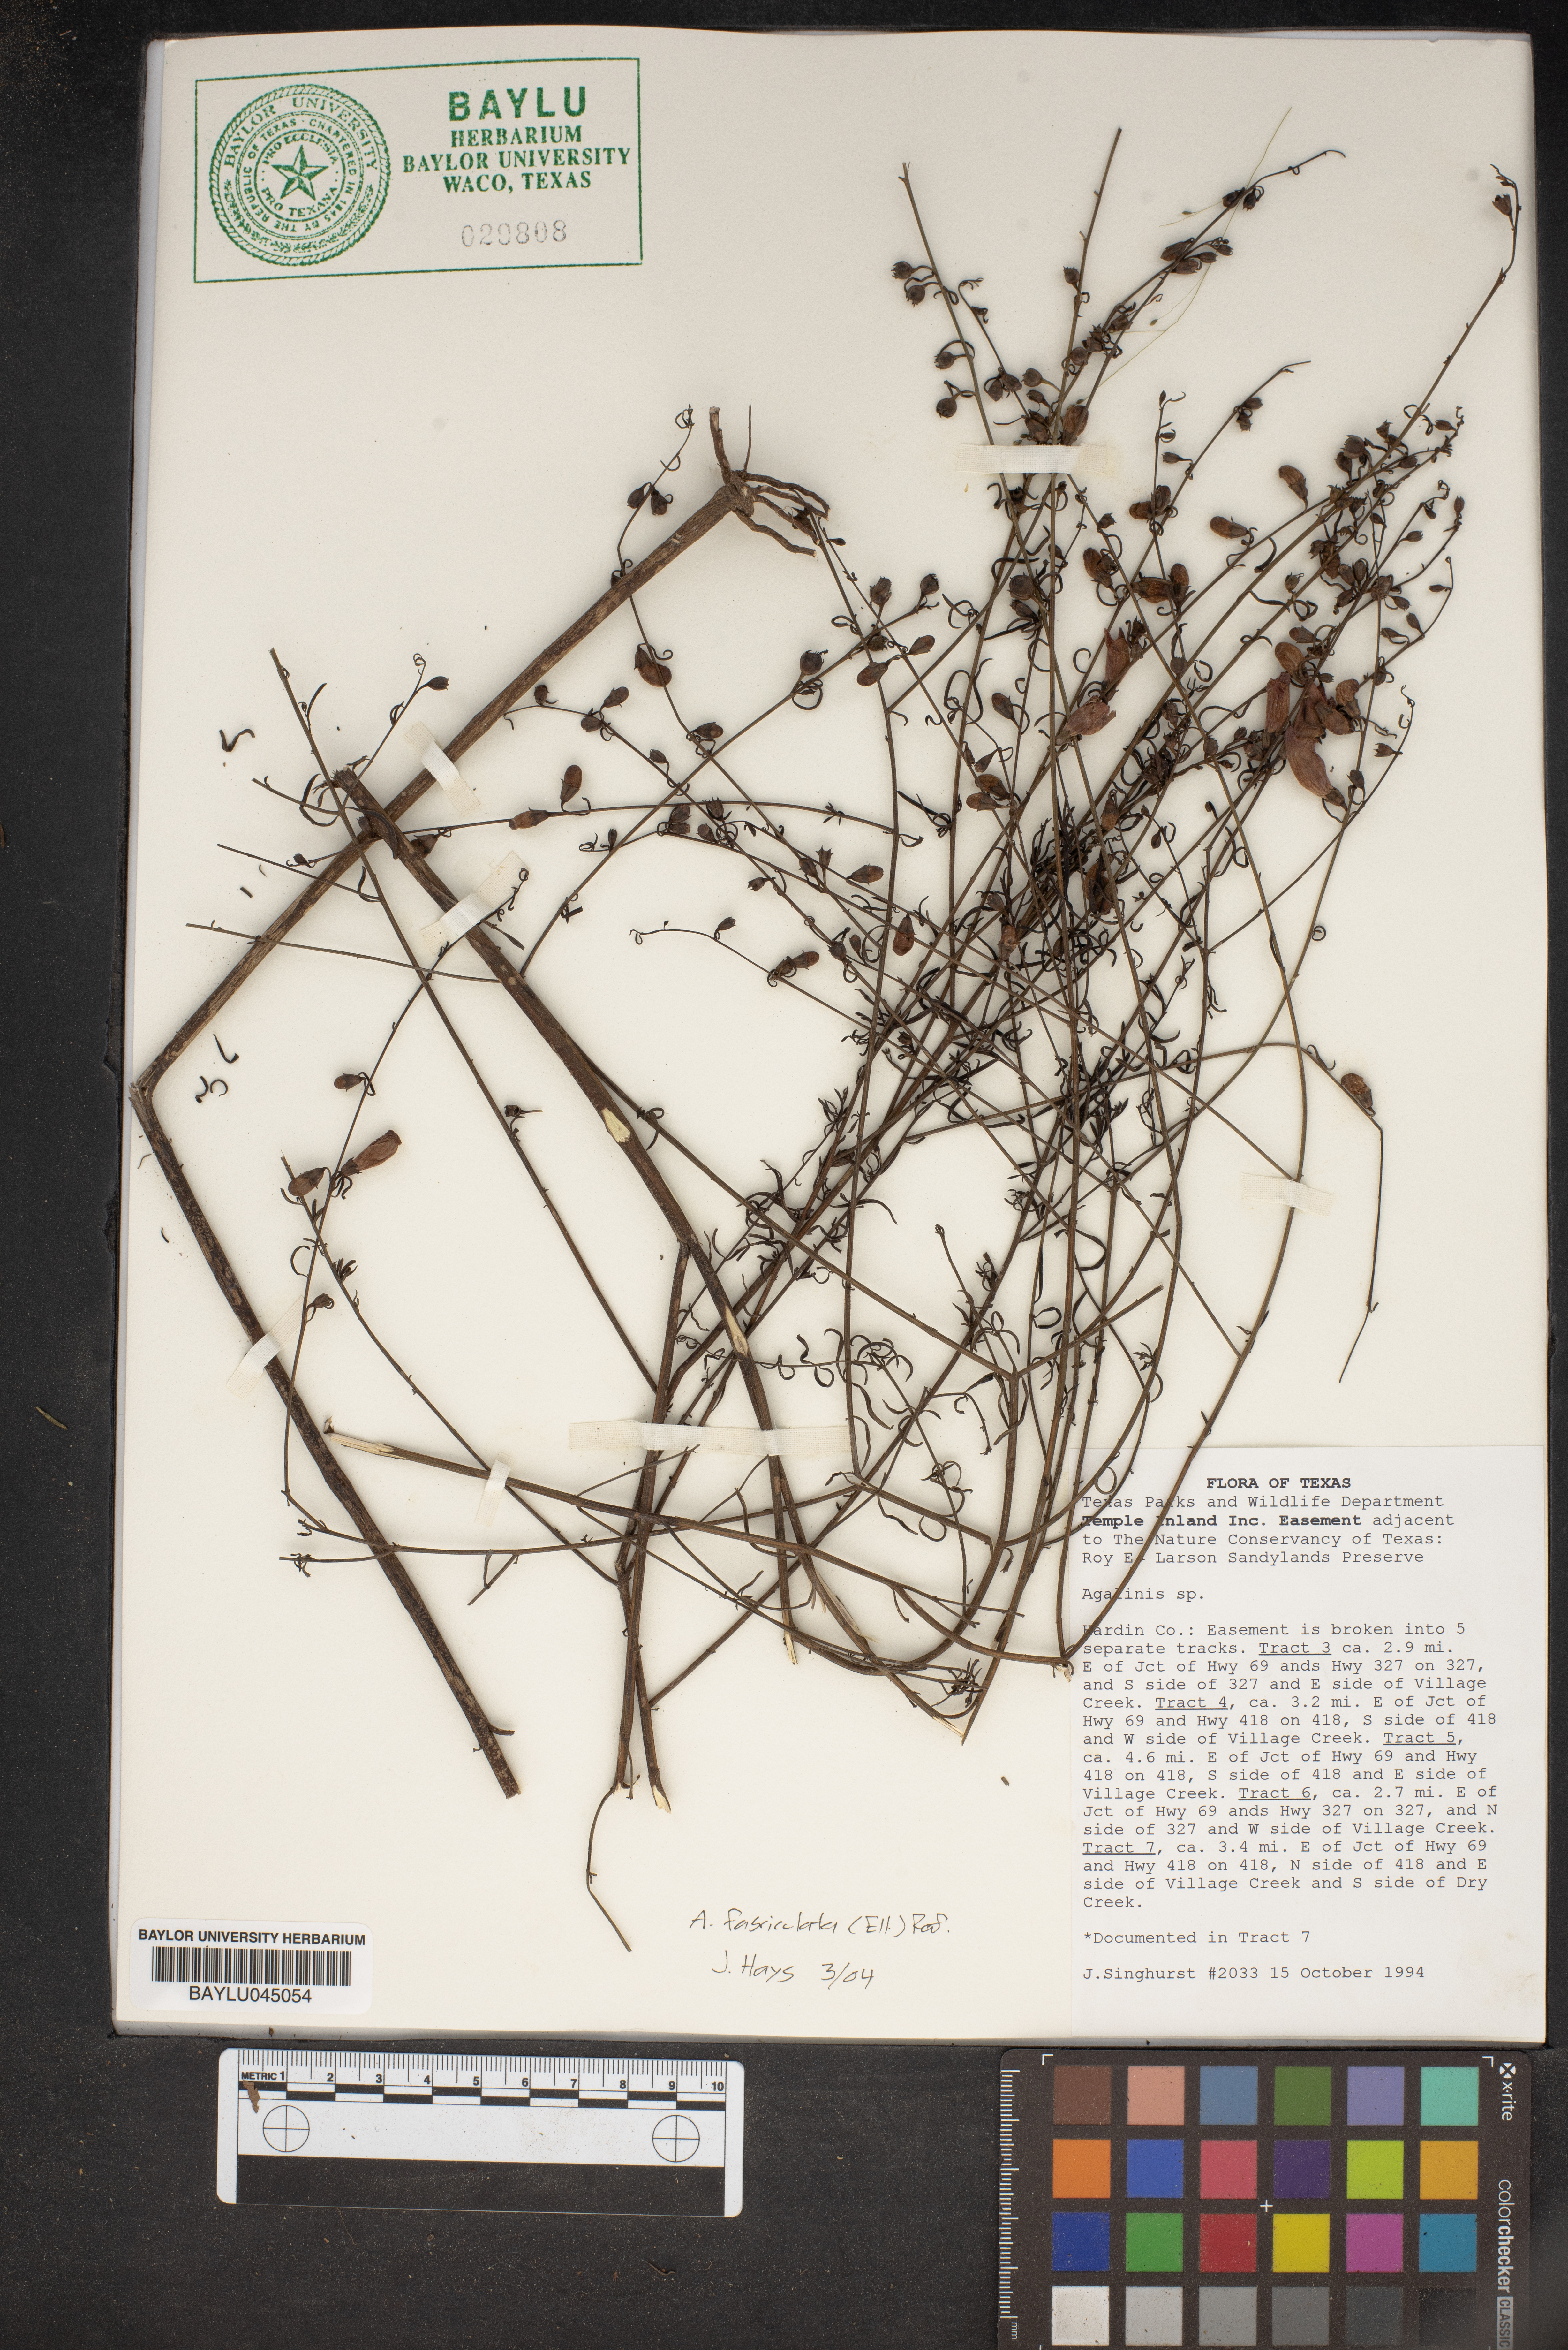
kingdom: Plantae
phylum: Tracheophyta
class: Magnoliopsida
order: Lamiales
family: Orobanchaceae
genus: Agalinis
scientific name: Agalinis
